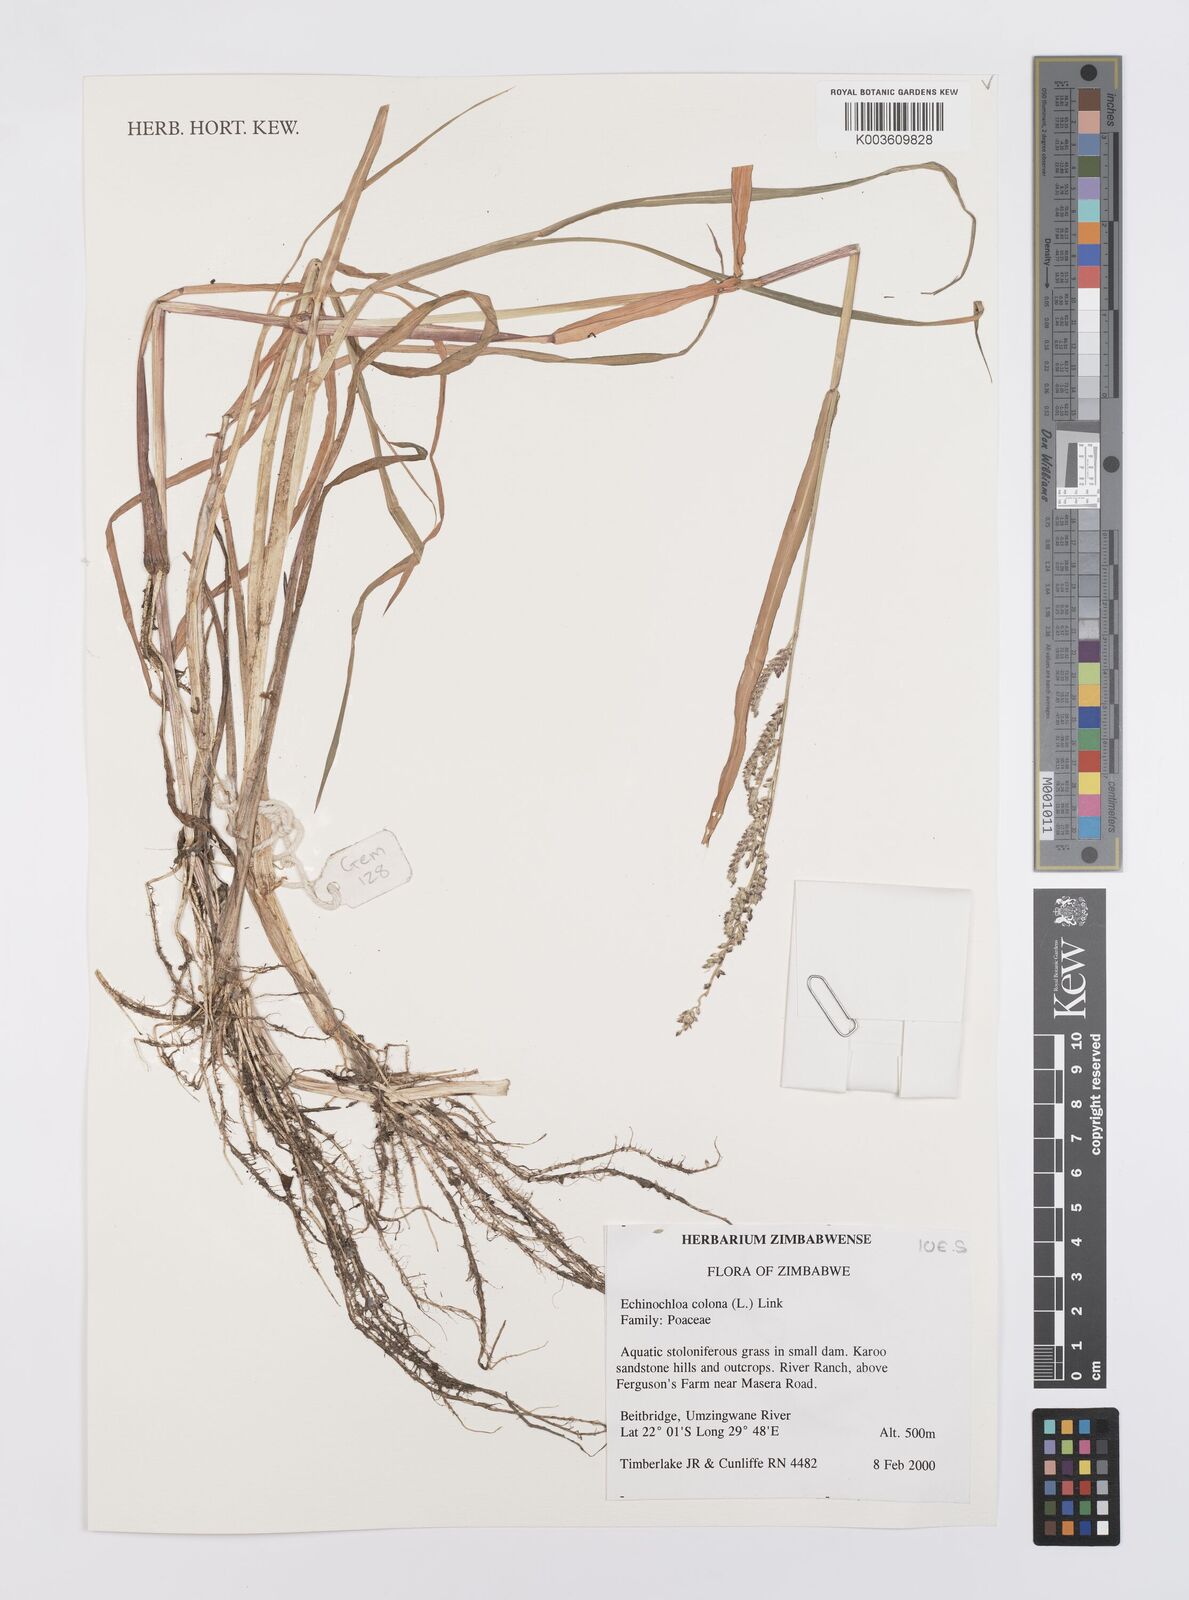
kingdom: Plantae
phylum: Tracheophyta
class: Liliopsida
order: Poales
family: Poaceae
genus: Echinochloa
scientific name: Echinochloa colonum
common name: Jungle rice
